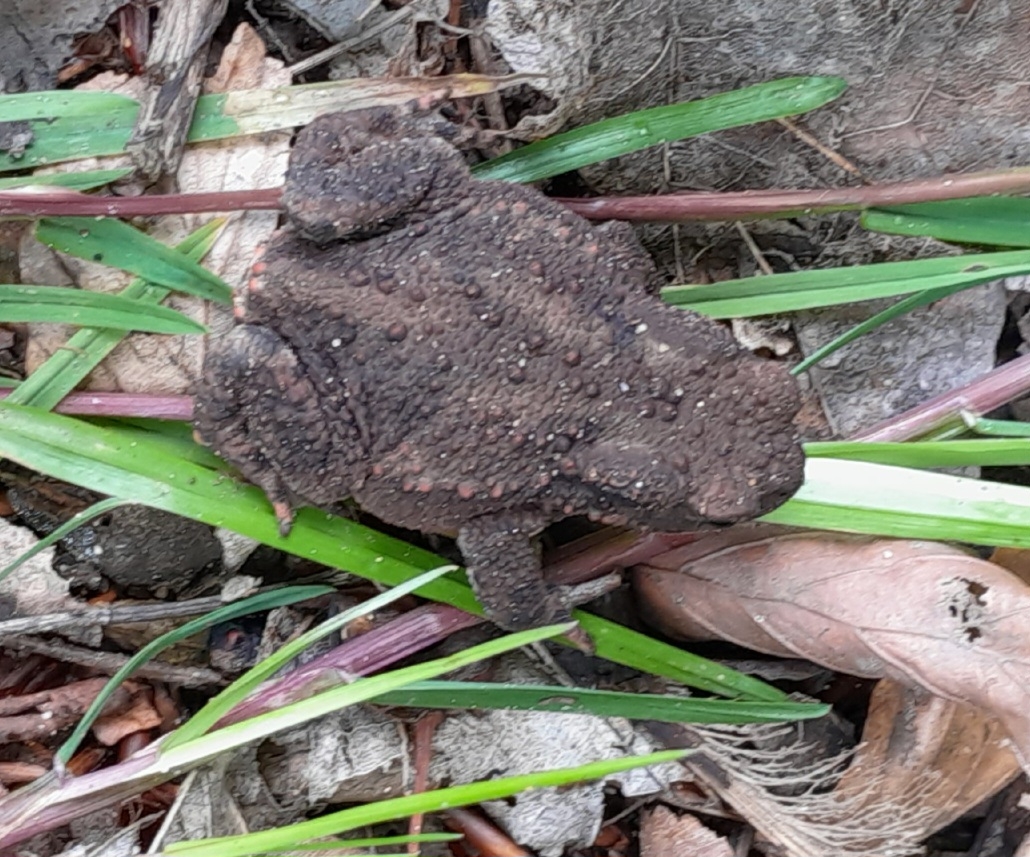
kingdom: Animalia
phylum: Chordata
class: Amphibia
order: Anura
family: Bufonidae
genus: Bufo
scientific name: Bufo bufo
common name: Skrubtudse
